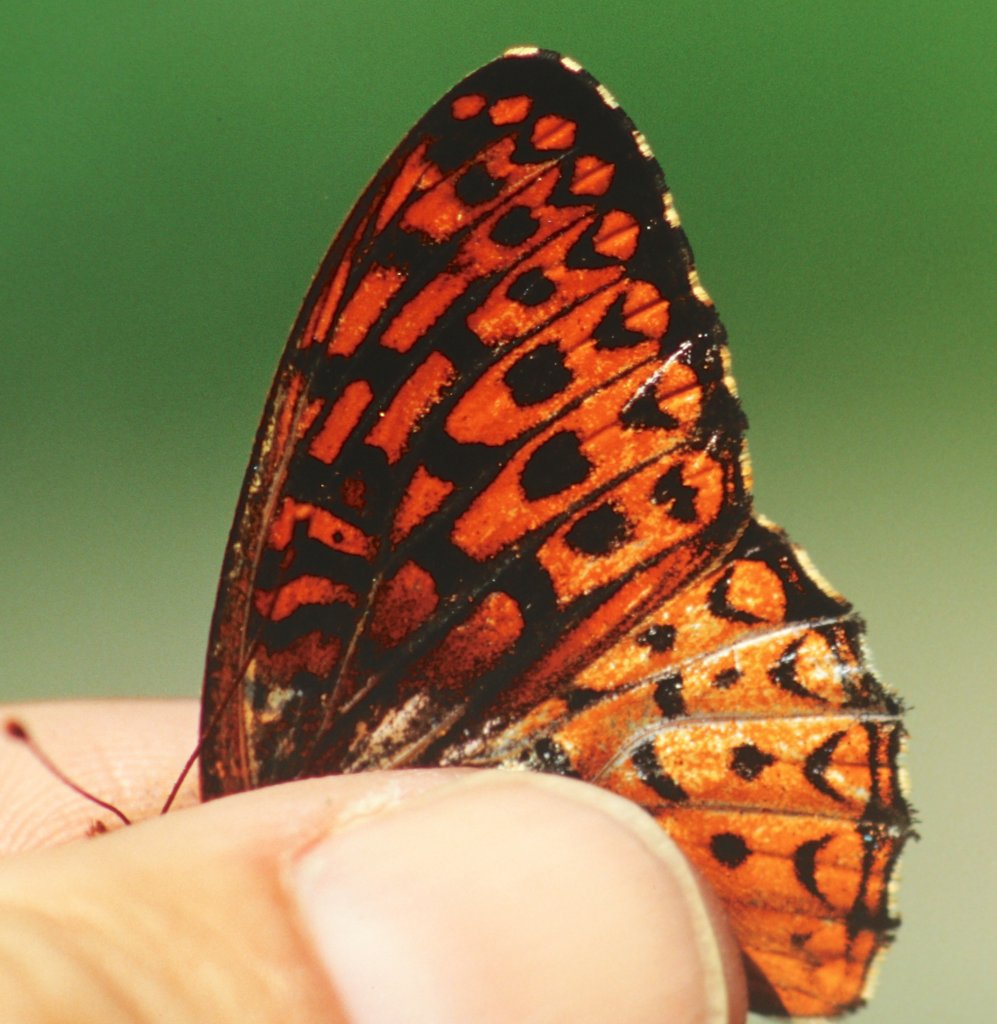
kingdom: Animalia
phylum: Arthropoda
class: Insecta
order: Lepidoptera
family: Nymphalidae
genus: Speyeria
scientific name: Speyeria atlantis
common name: Atlantis Fritillary
